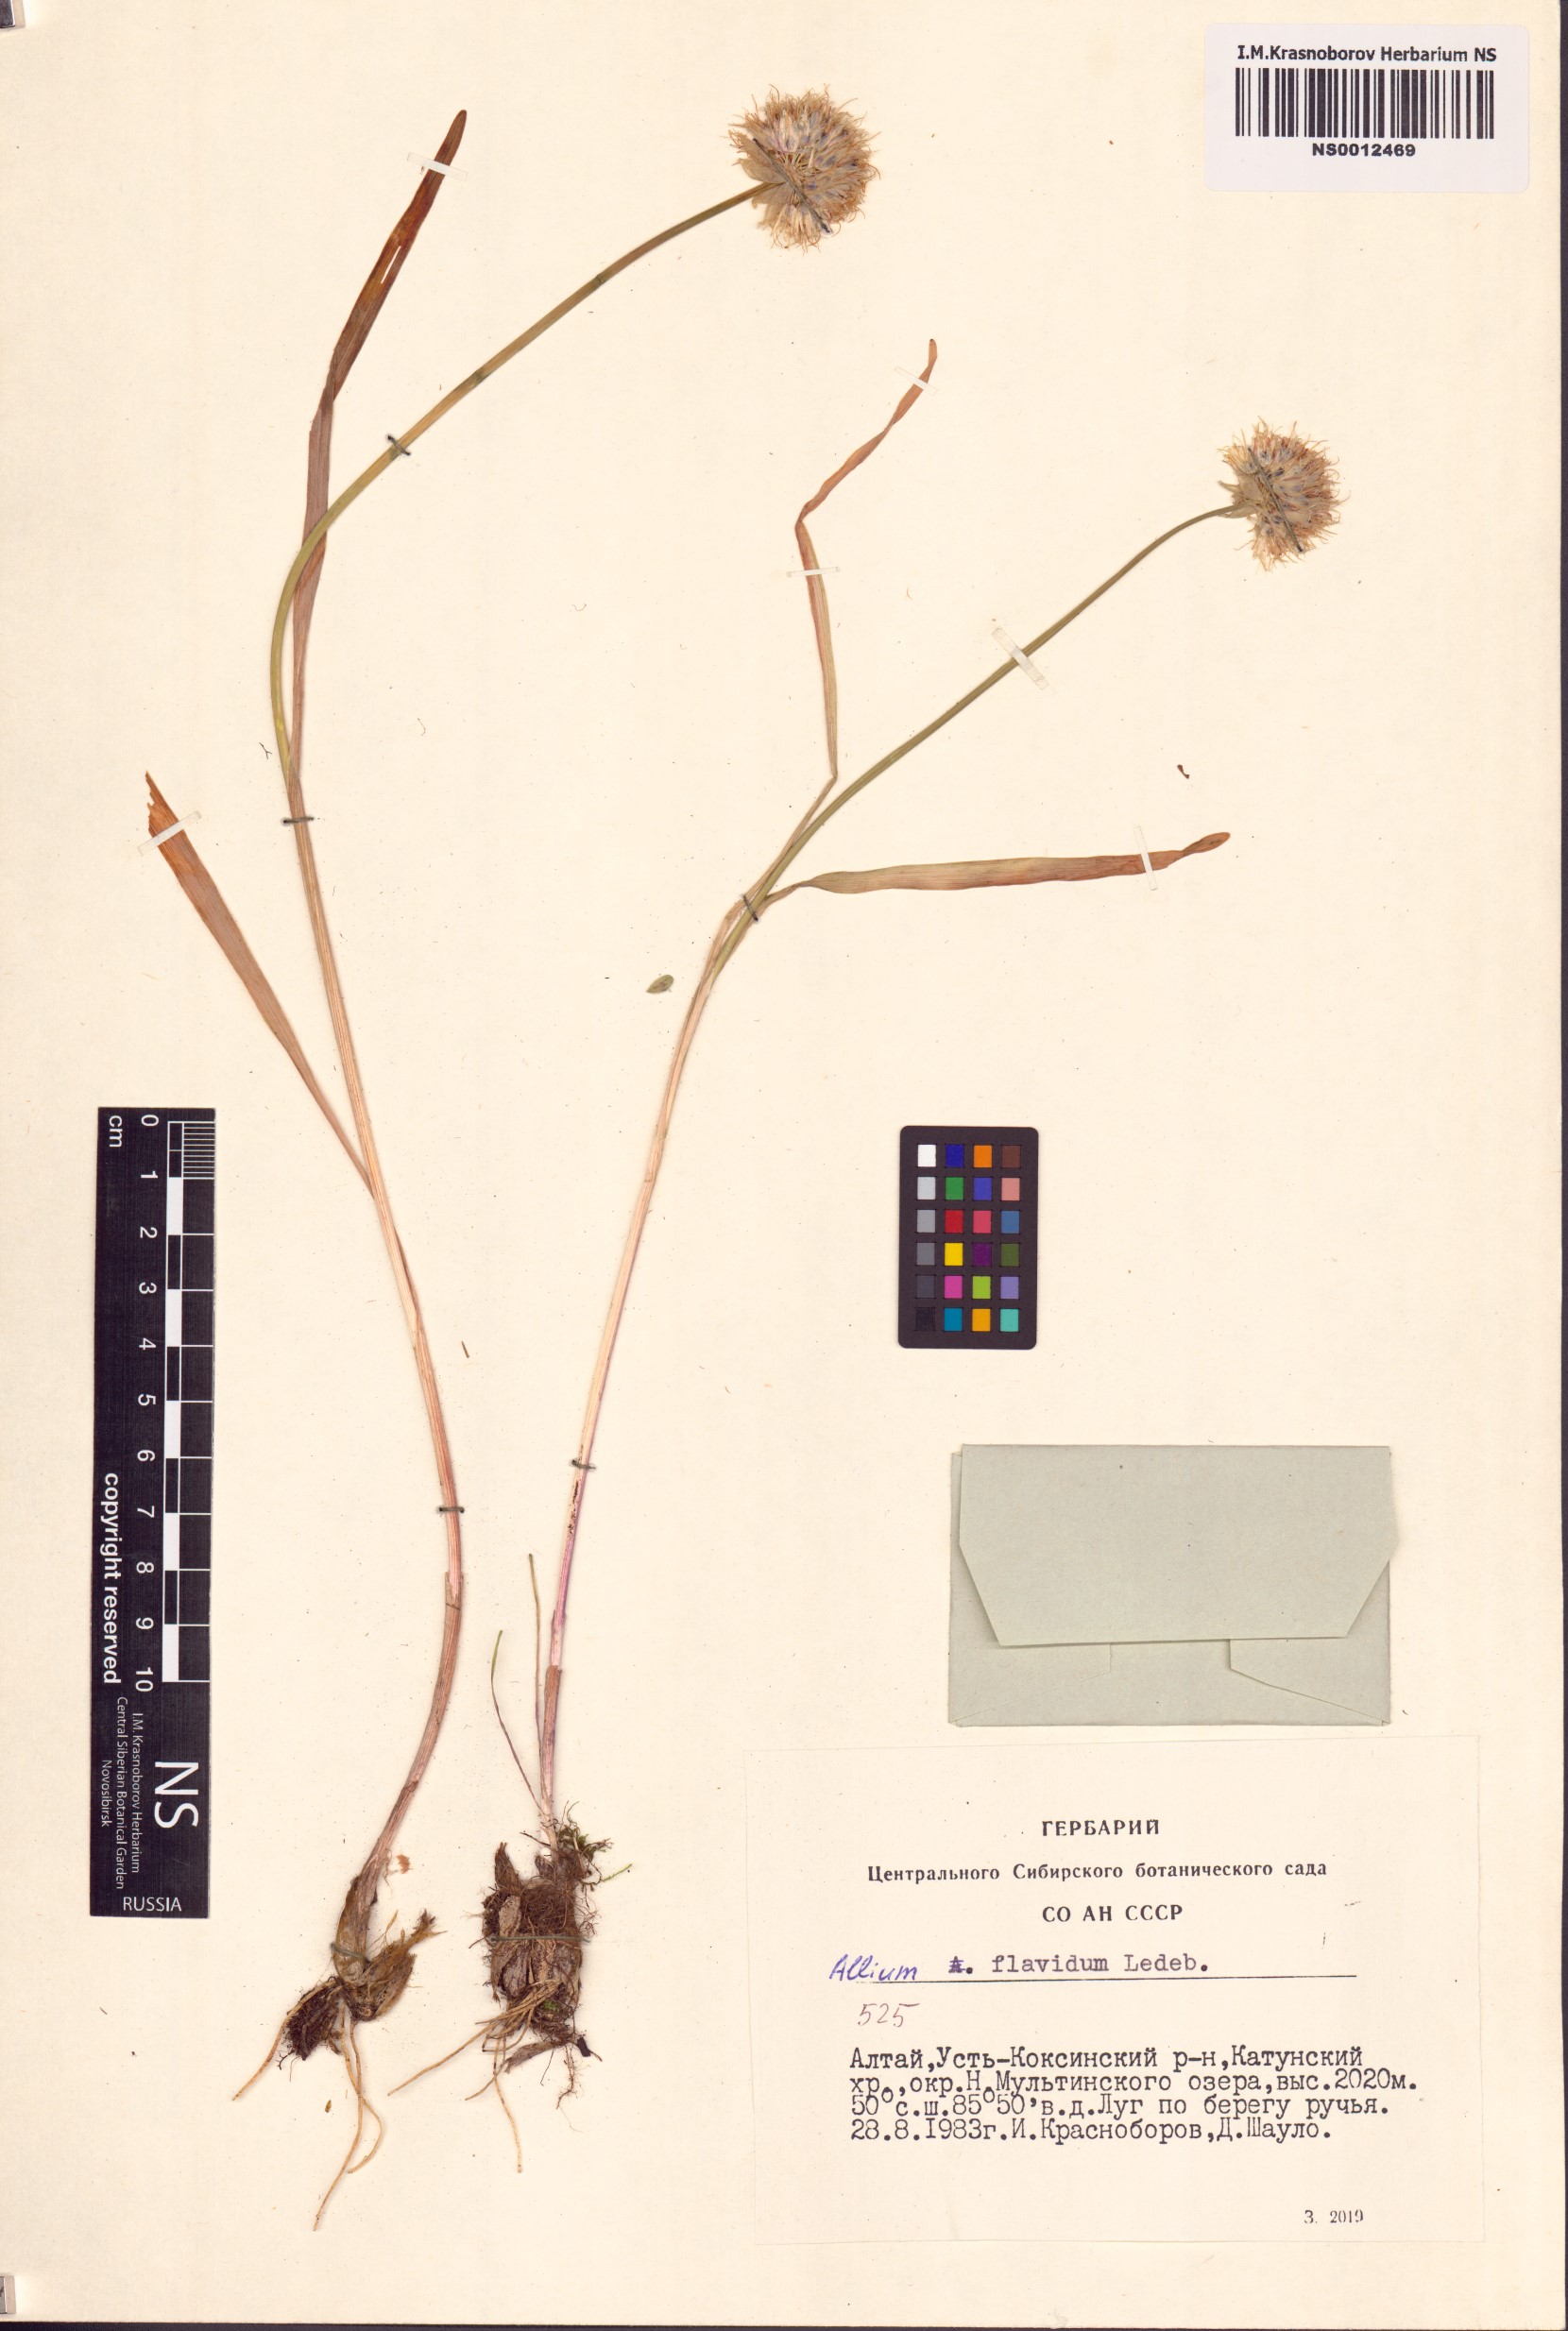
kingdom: Plantae
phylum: Tracheophyta
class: Liliopsida
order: Asparagales
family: Amaryllidaceae
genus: Allium
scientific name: Allium flavidum
